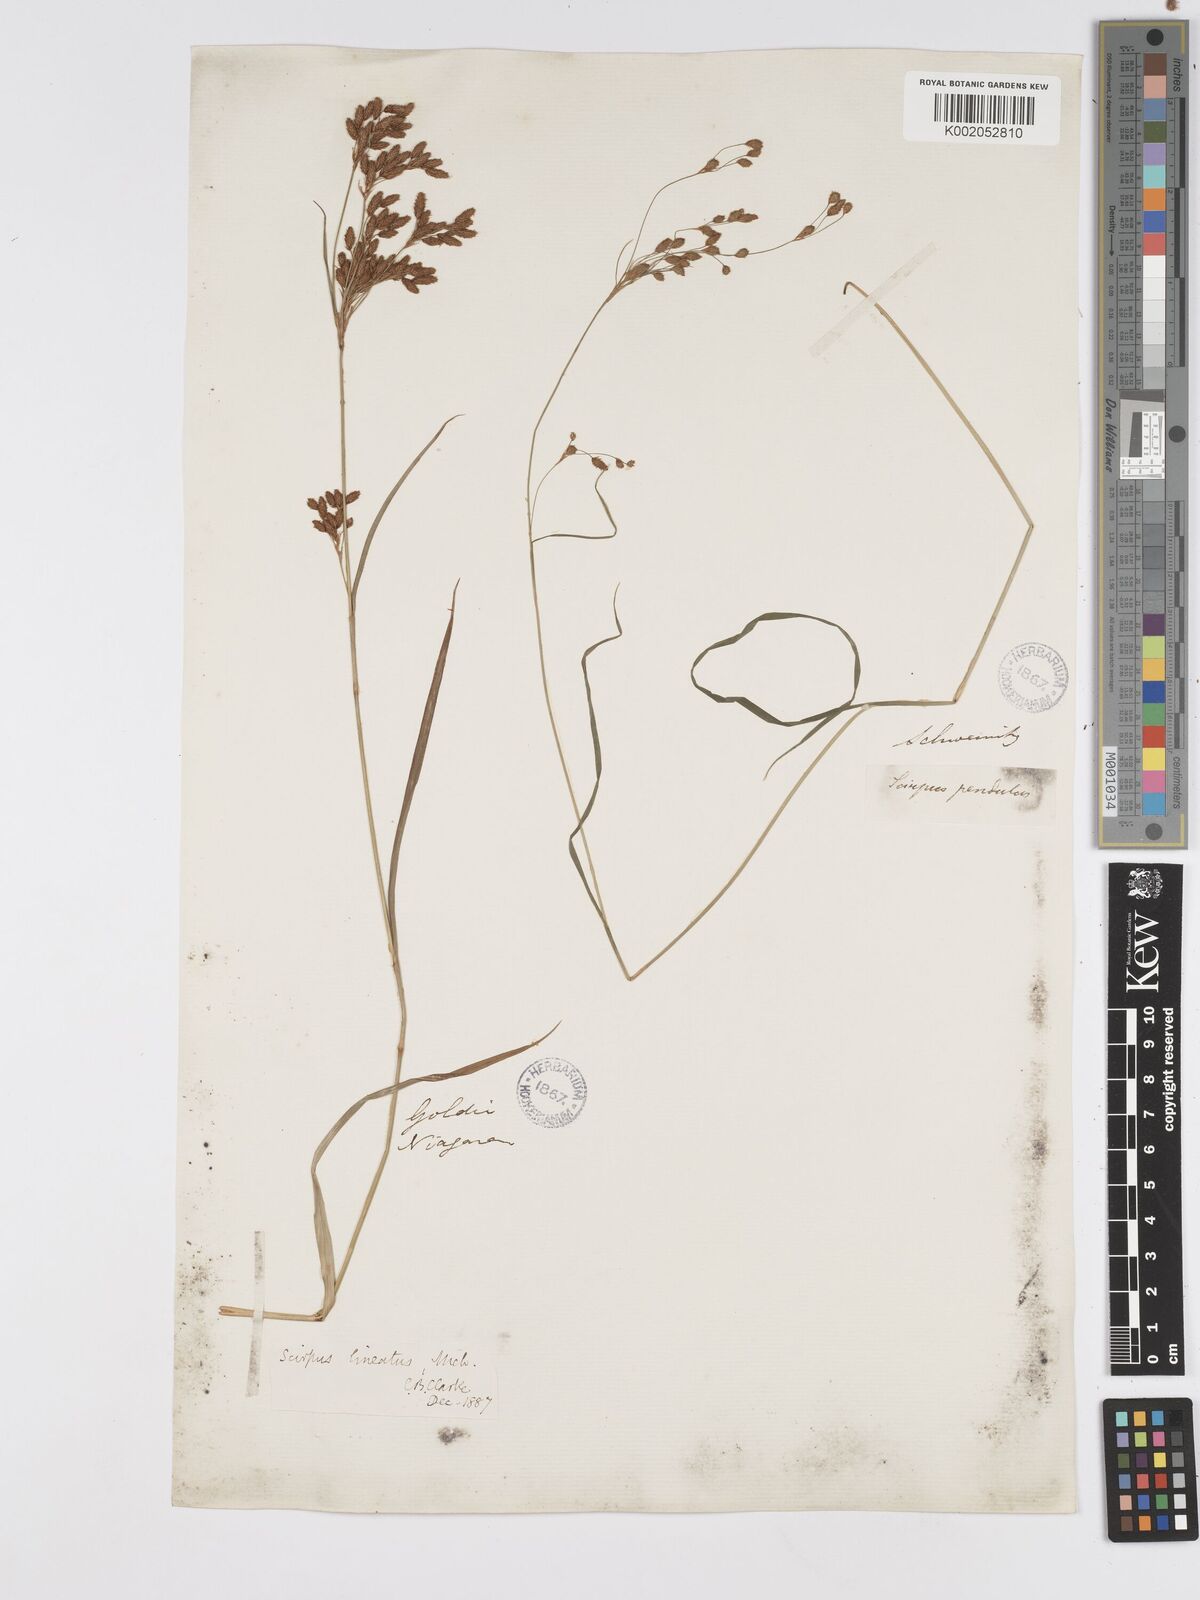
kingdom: Plantae
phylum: Tracheophyta
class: Liliopsida
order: Poales
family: Cyperaceae
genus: Scirpus
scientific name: Scirpus lineatus
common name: Drooping bulrush
